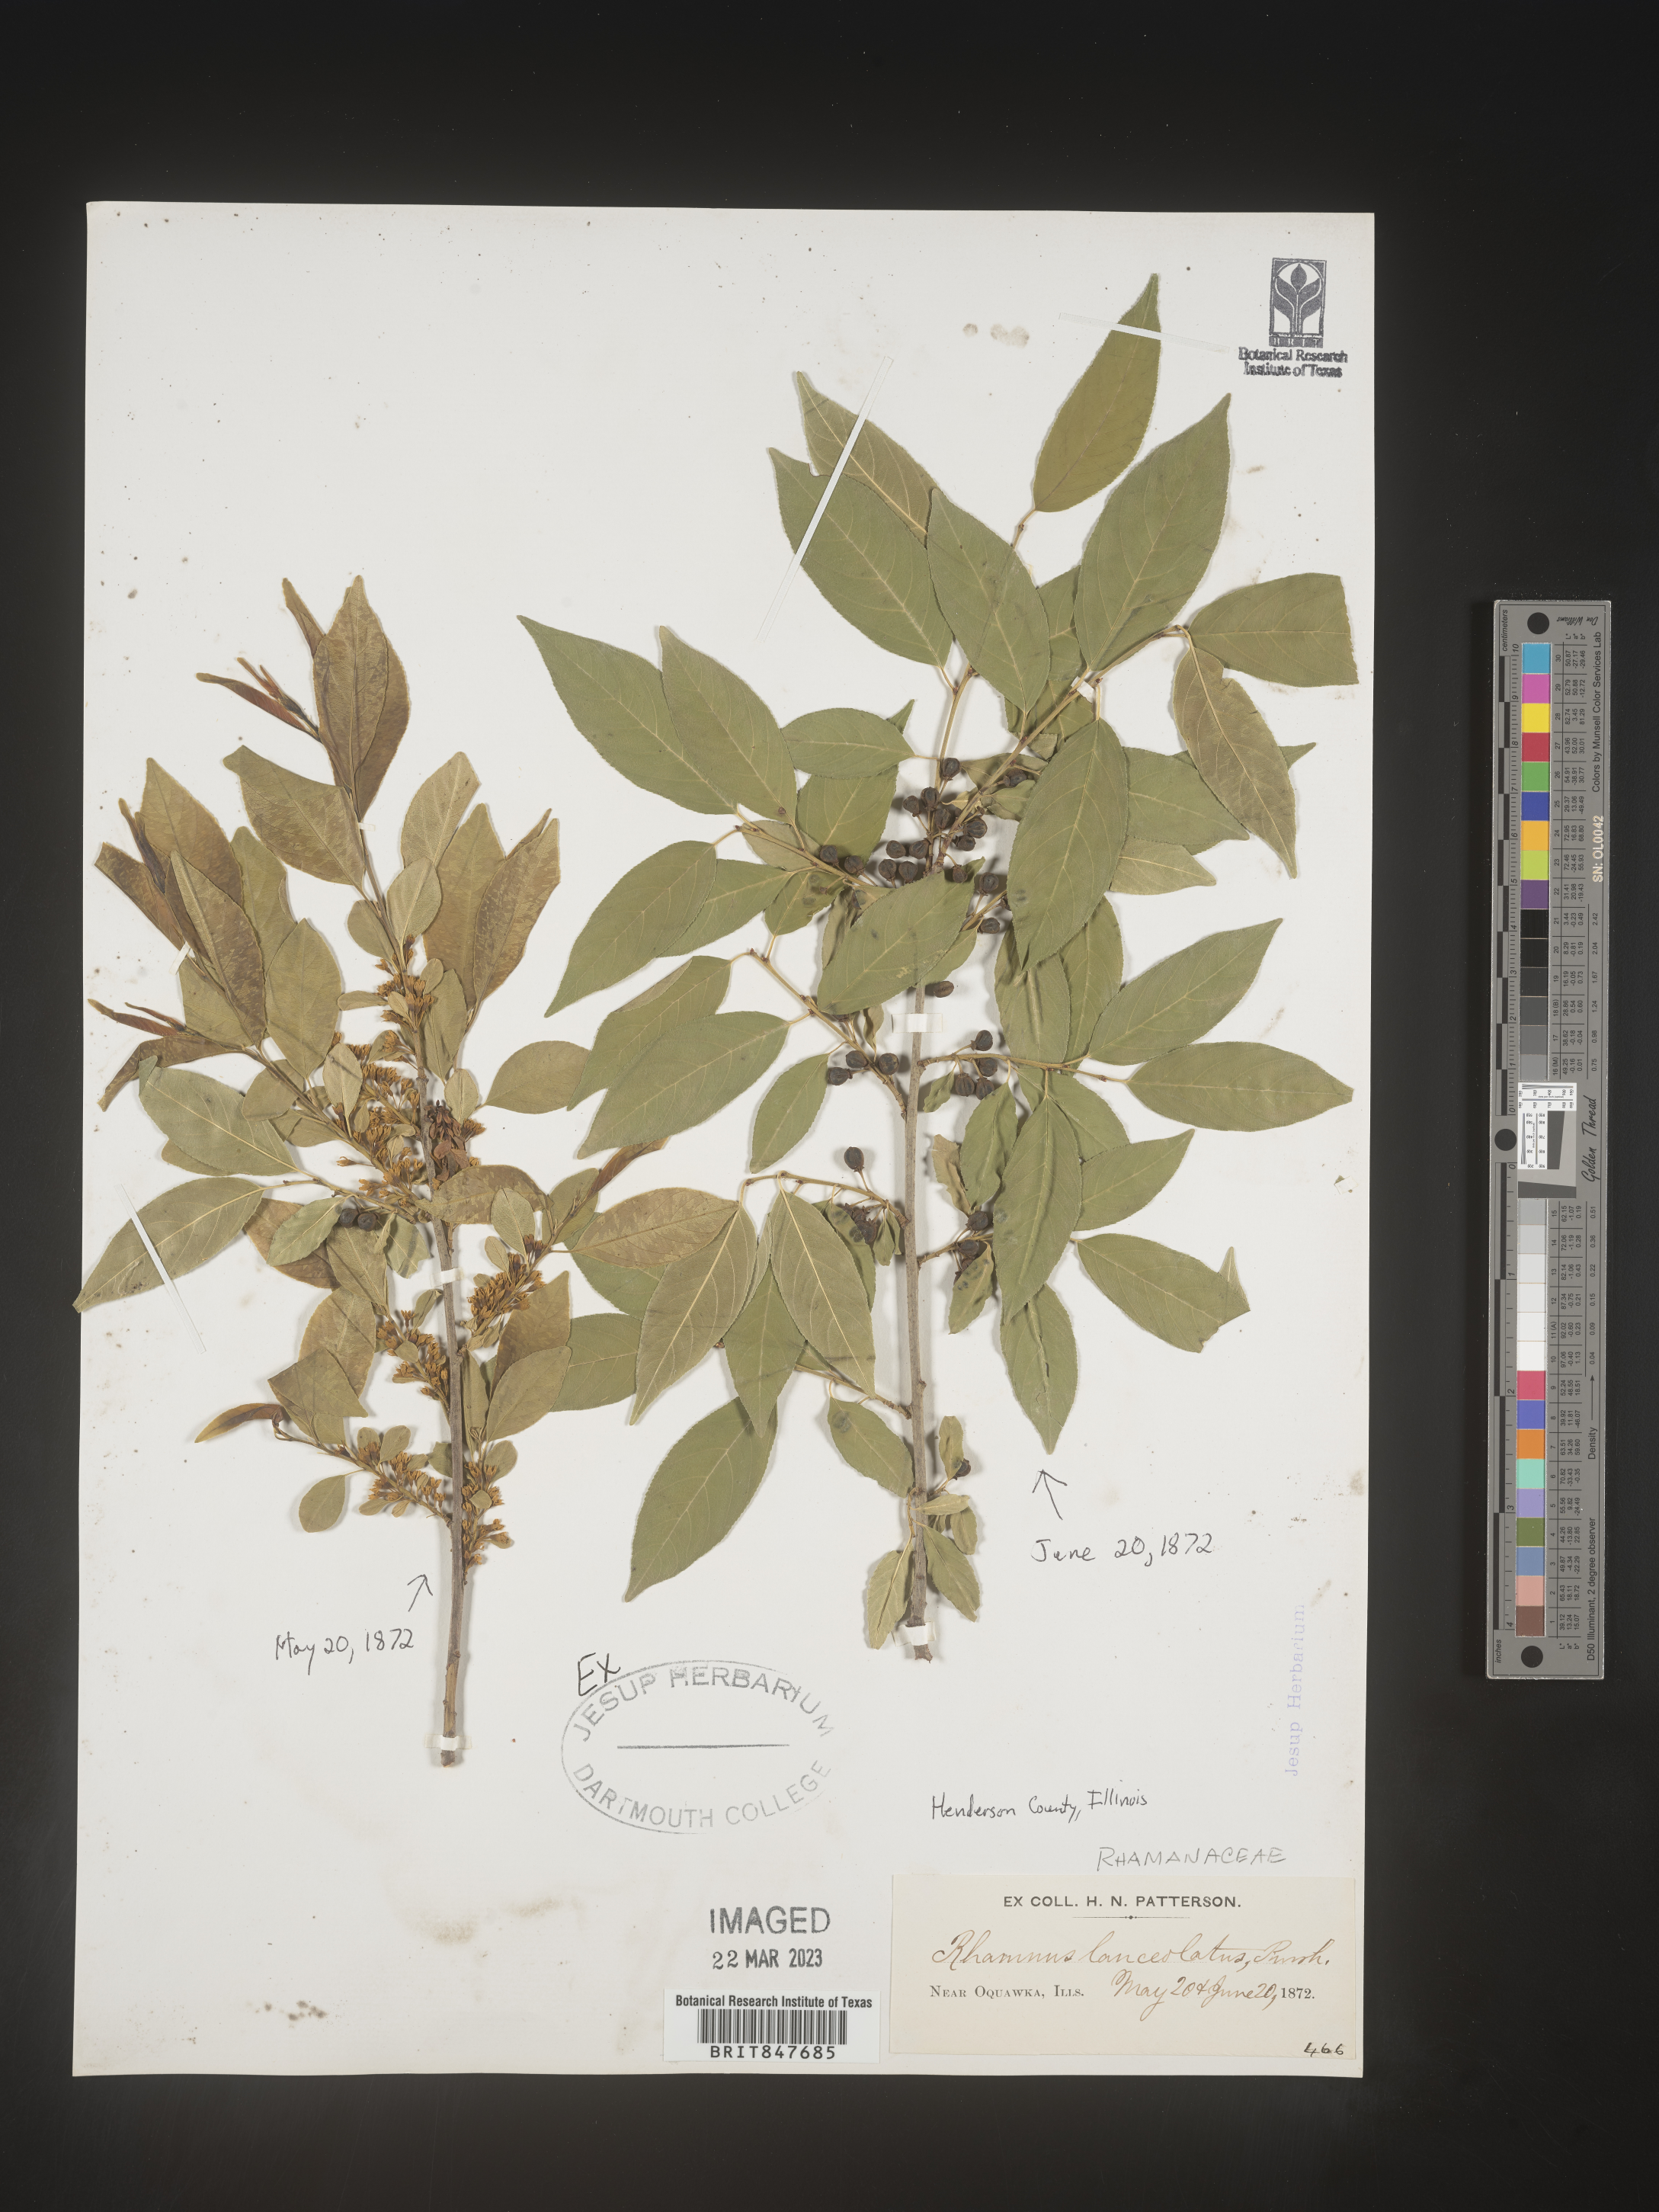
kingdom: Plantae
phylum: Tracheophyta
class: Magnoliopsida
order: Rosales
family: Rhamnaceae
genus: Endotropis
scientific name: Endotropis lanceolata
